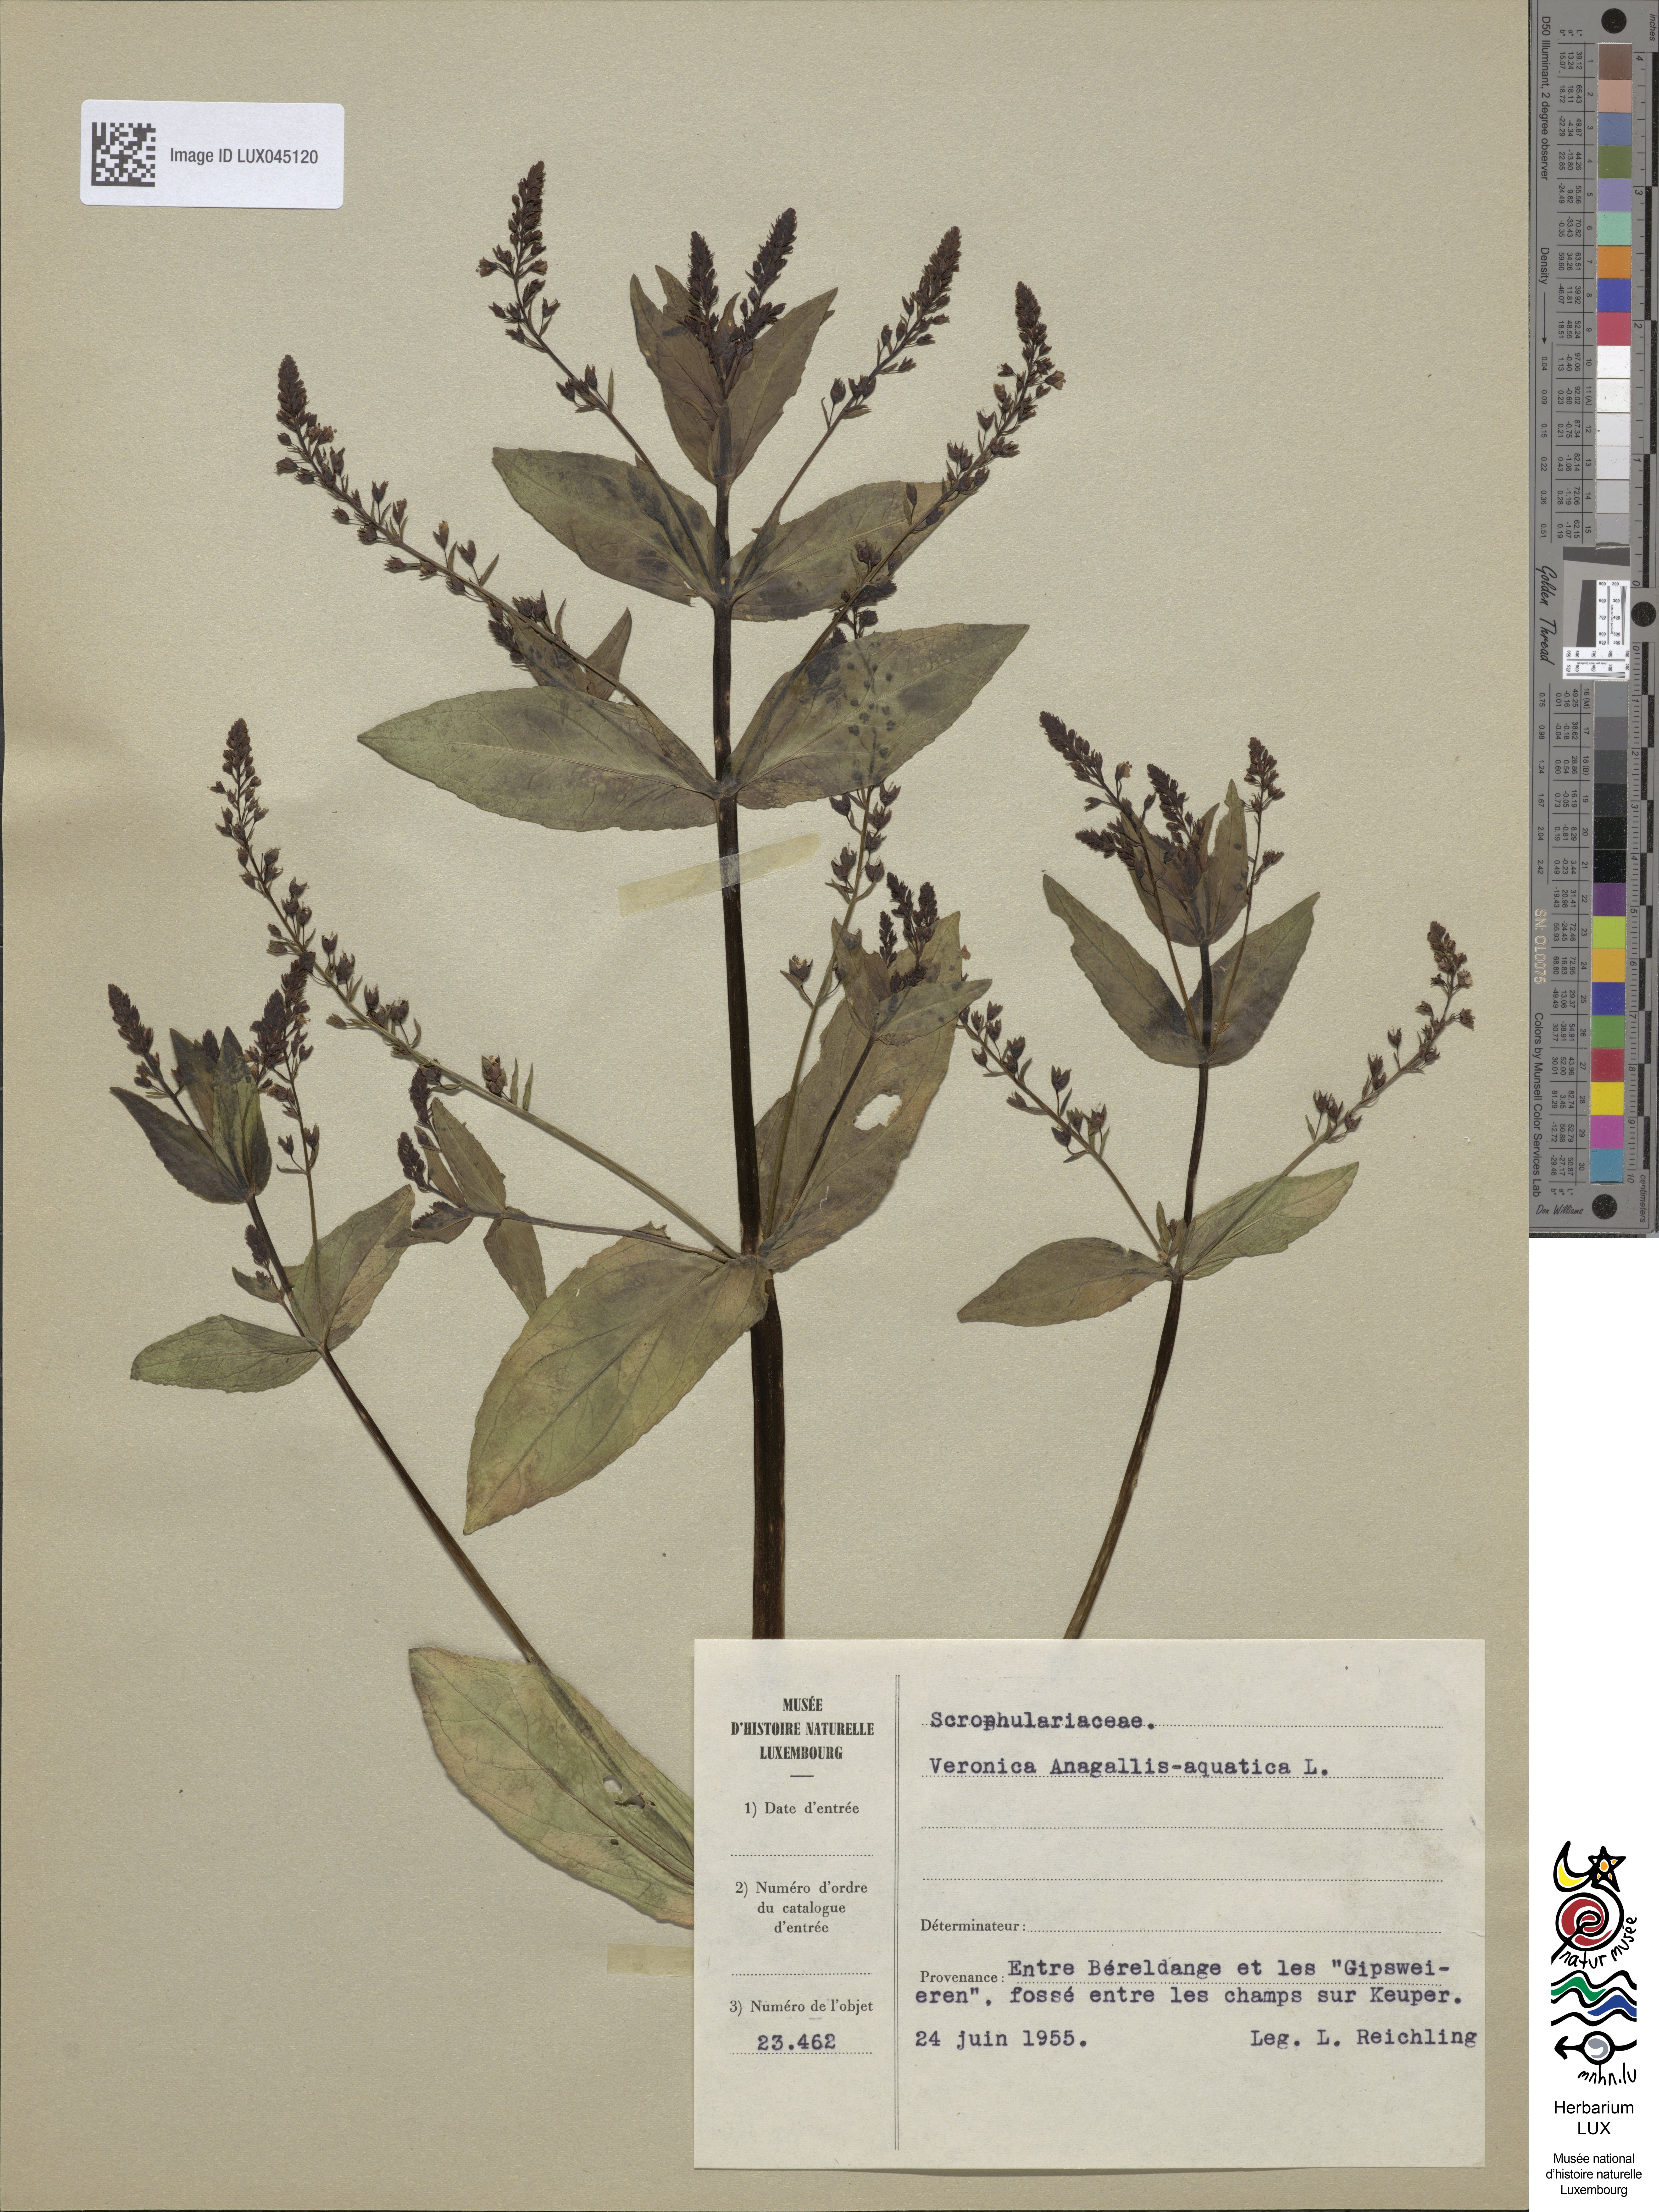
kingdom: Plantae
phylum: Tracheophyta
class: Magnoliopsida
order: Lamiales
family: Plantaginaceae
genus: Veronica
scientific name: Veronica anagallis-aquatica
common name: Water speedwell
